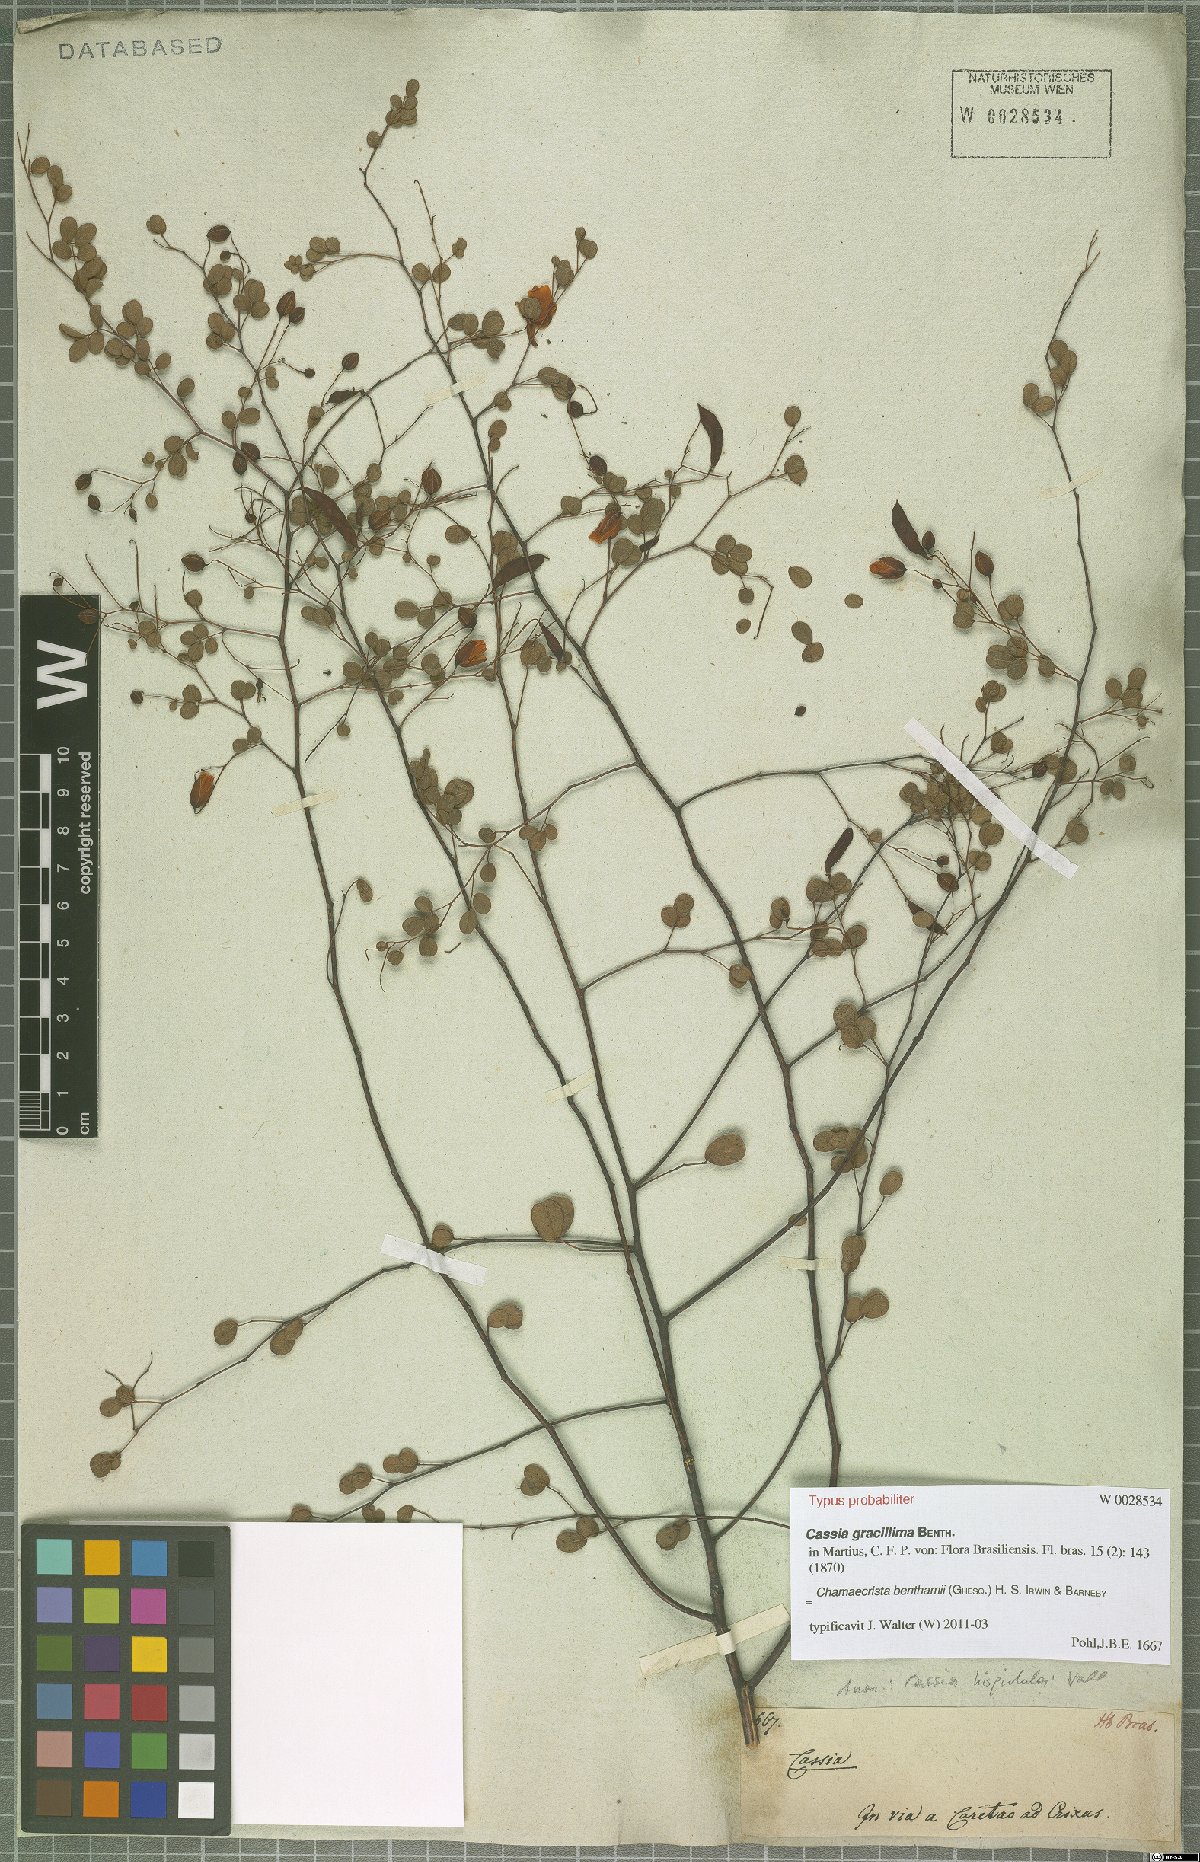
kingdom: Plantae
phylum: Tracheophyta
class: Magnoliopsida
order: Fabales
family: Fabaceae
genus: Chamaecrista
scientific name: Chamaecrista benthamii
